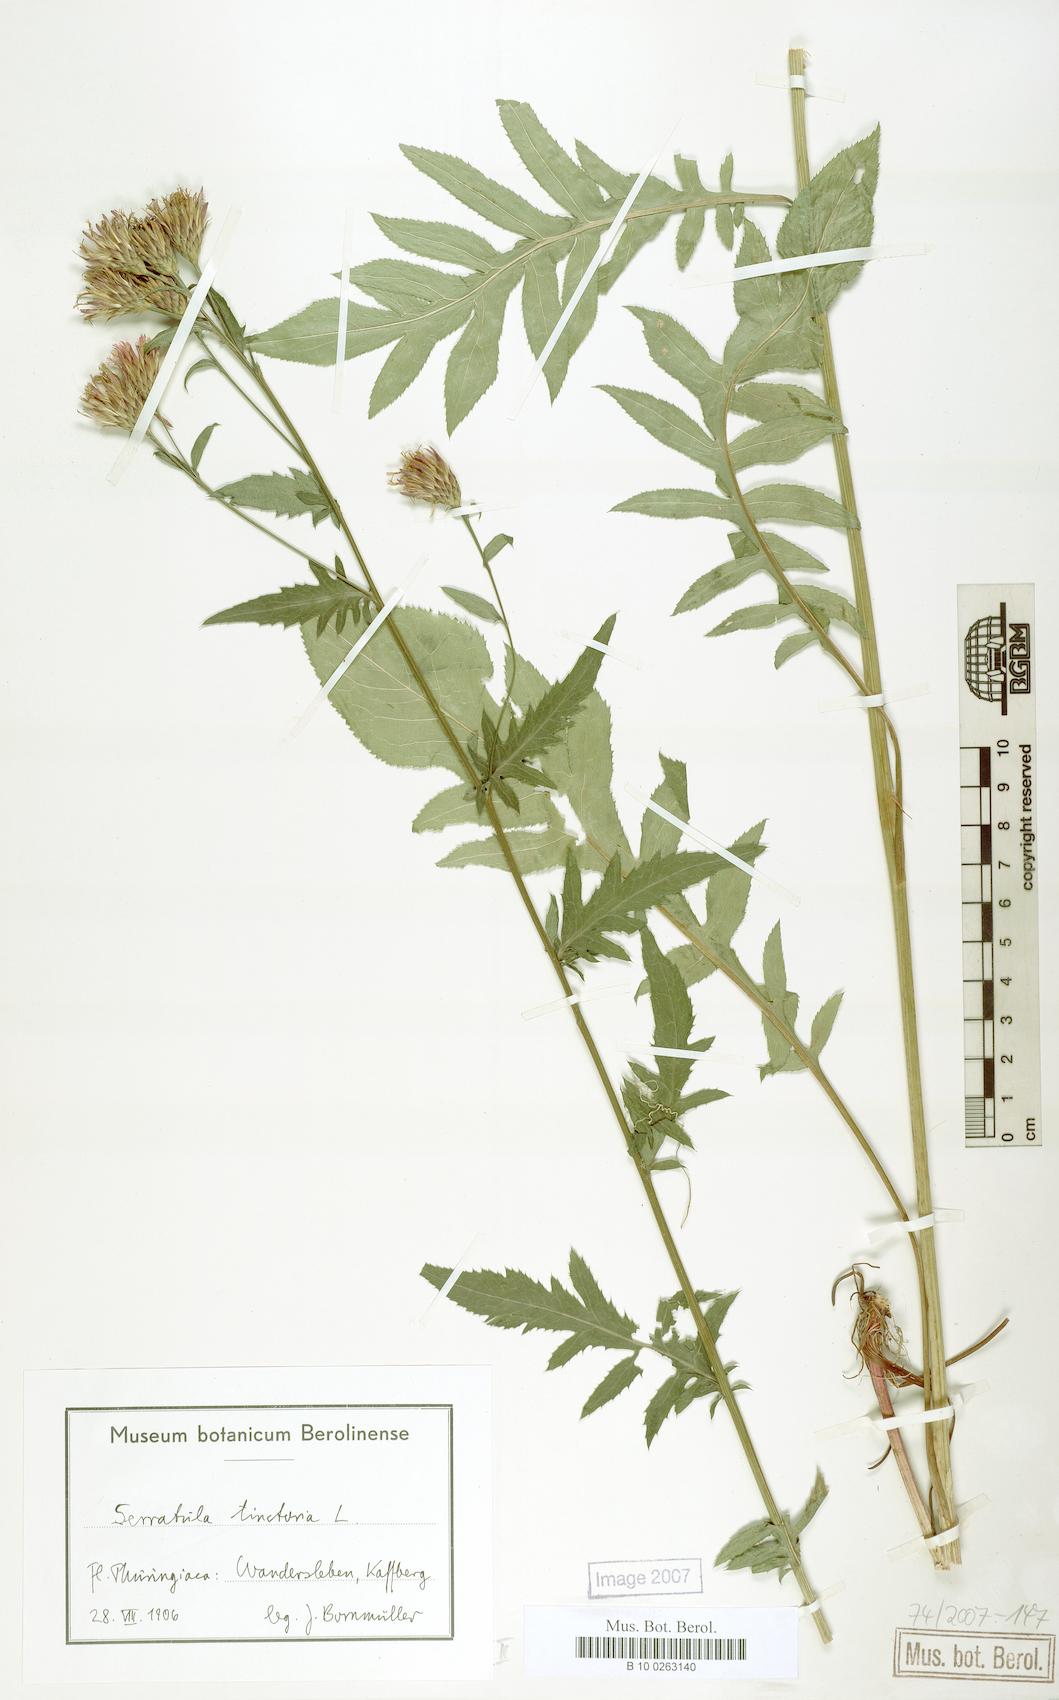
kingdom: Plantae
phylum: Tracheophyta
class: Magnoliopsida
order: Asterales
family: Asteraceae
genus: Serratula
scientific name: Serratula tinctoria
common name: Saw-wort
